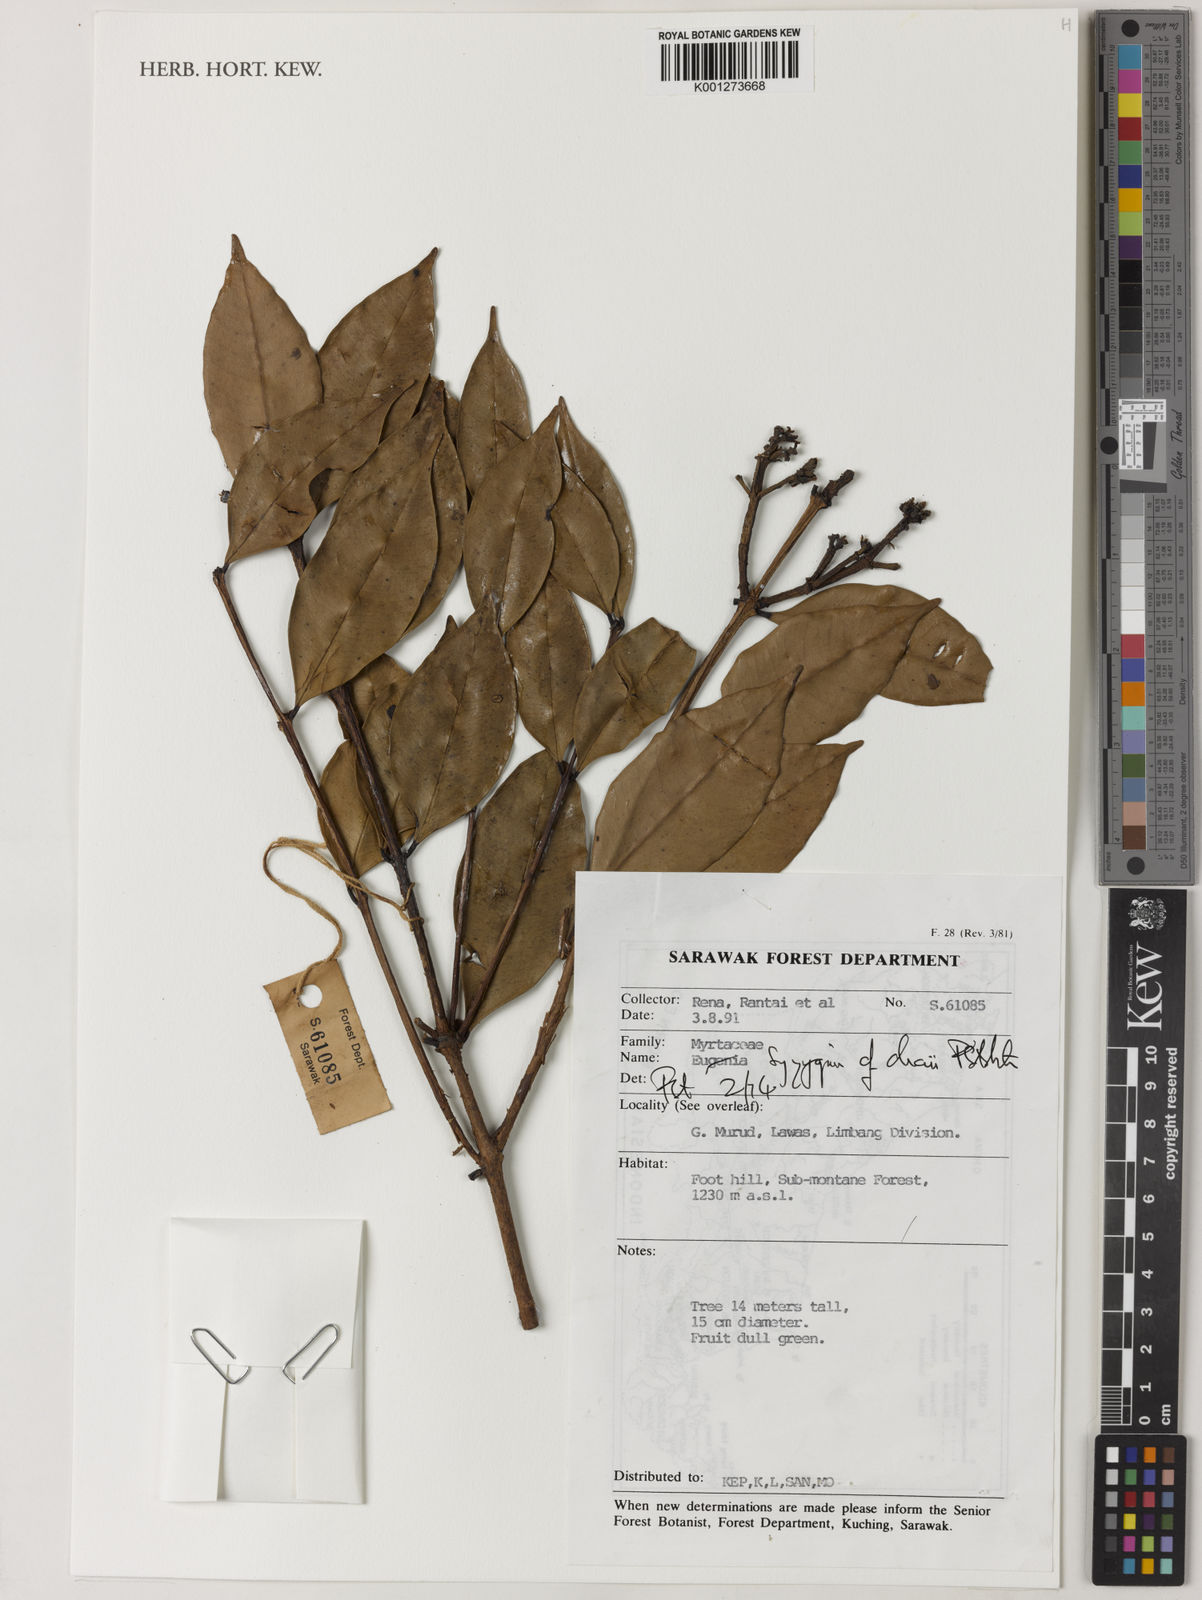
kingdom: Plantae
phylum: Tracheophyta
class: Magnoliopsida
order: Myrtales
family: Myrtaceae
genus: Syzygium
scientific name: Syzygium chaii
